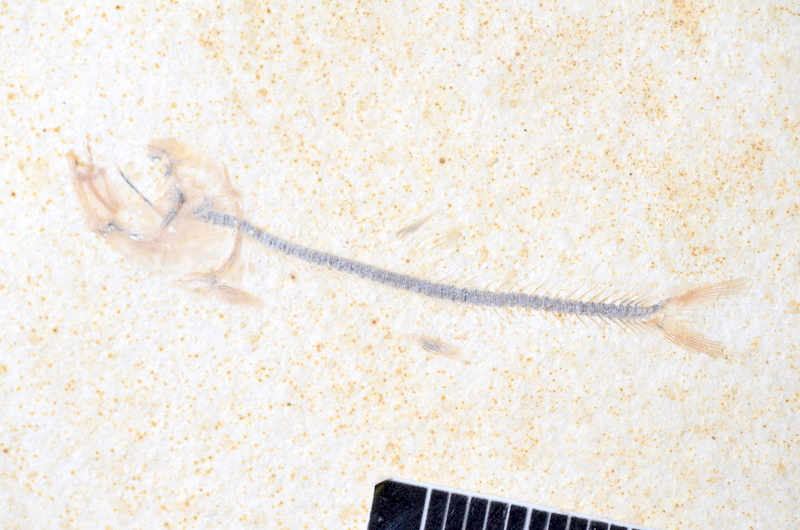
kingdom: Animalia
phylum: Chordata
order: Salmoniformes
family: Orthogonikleithridae
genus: Orthogonikleithrus
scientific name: Orthogonikleithrus hoelli
